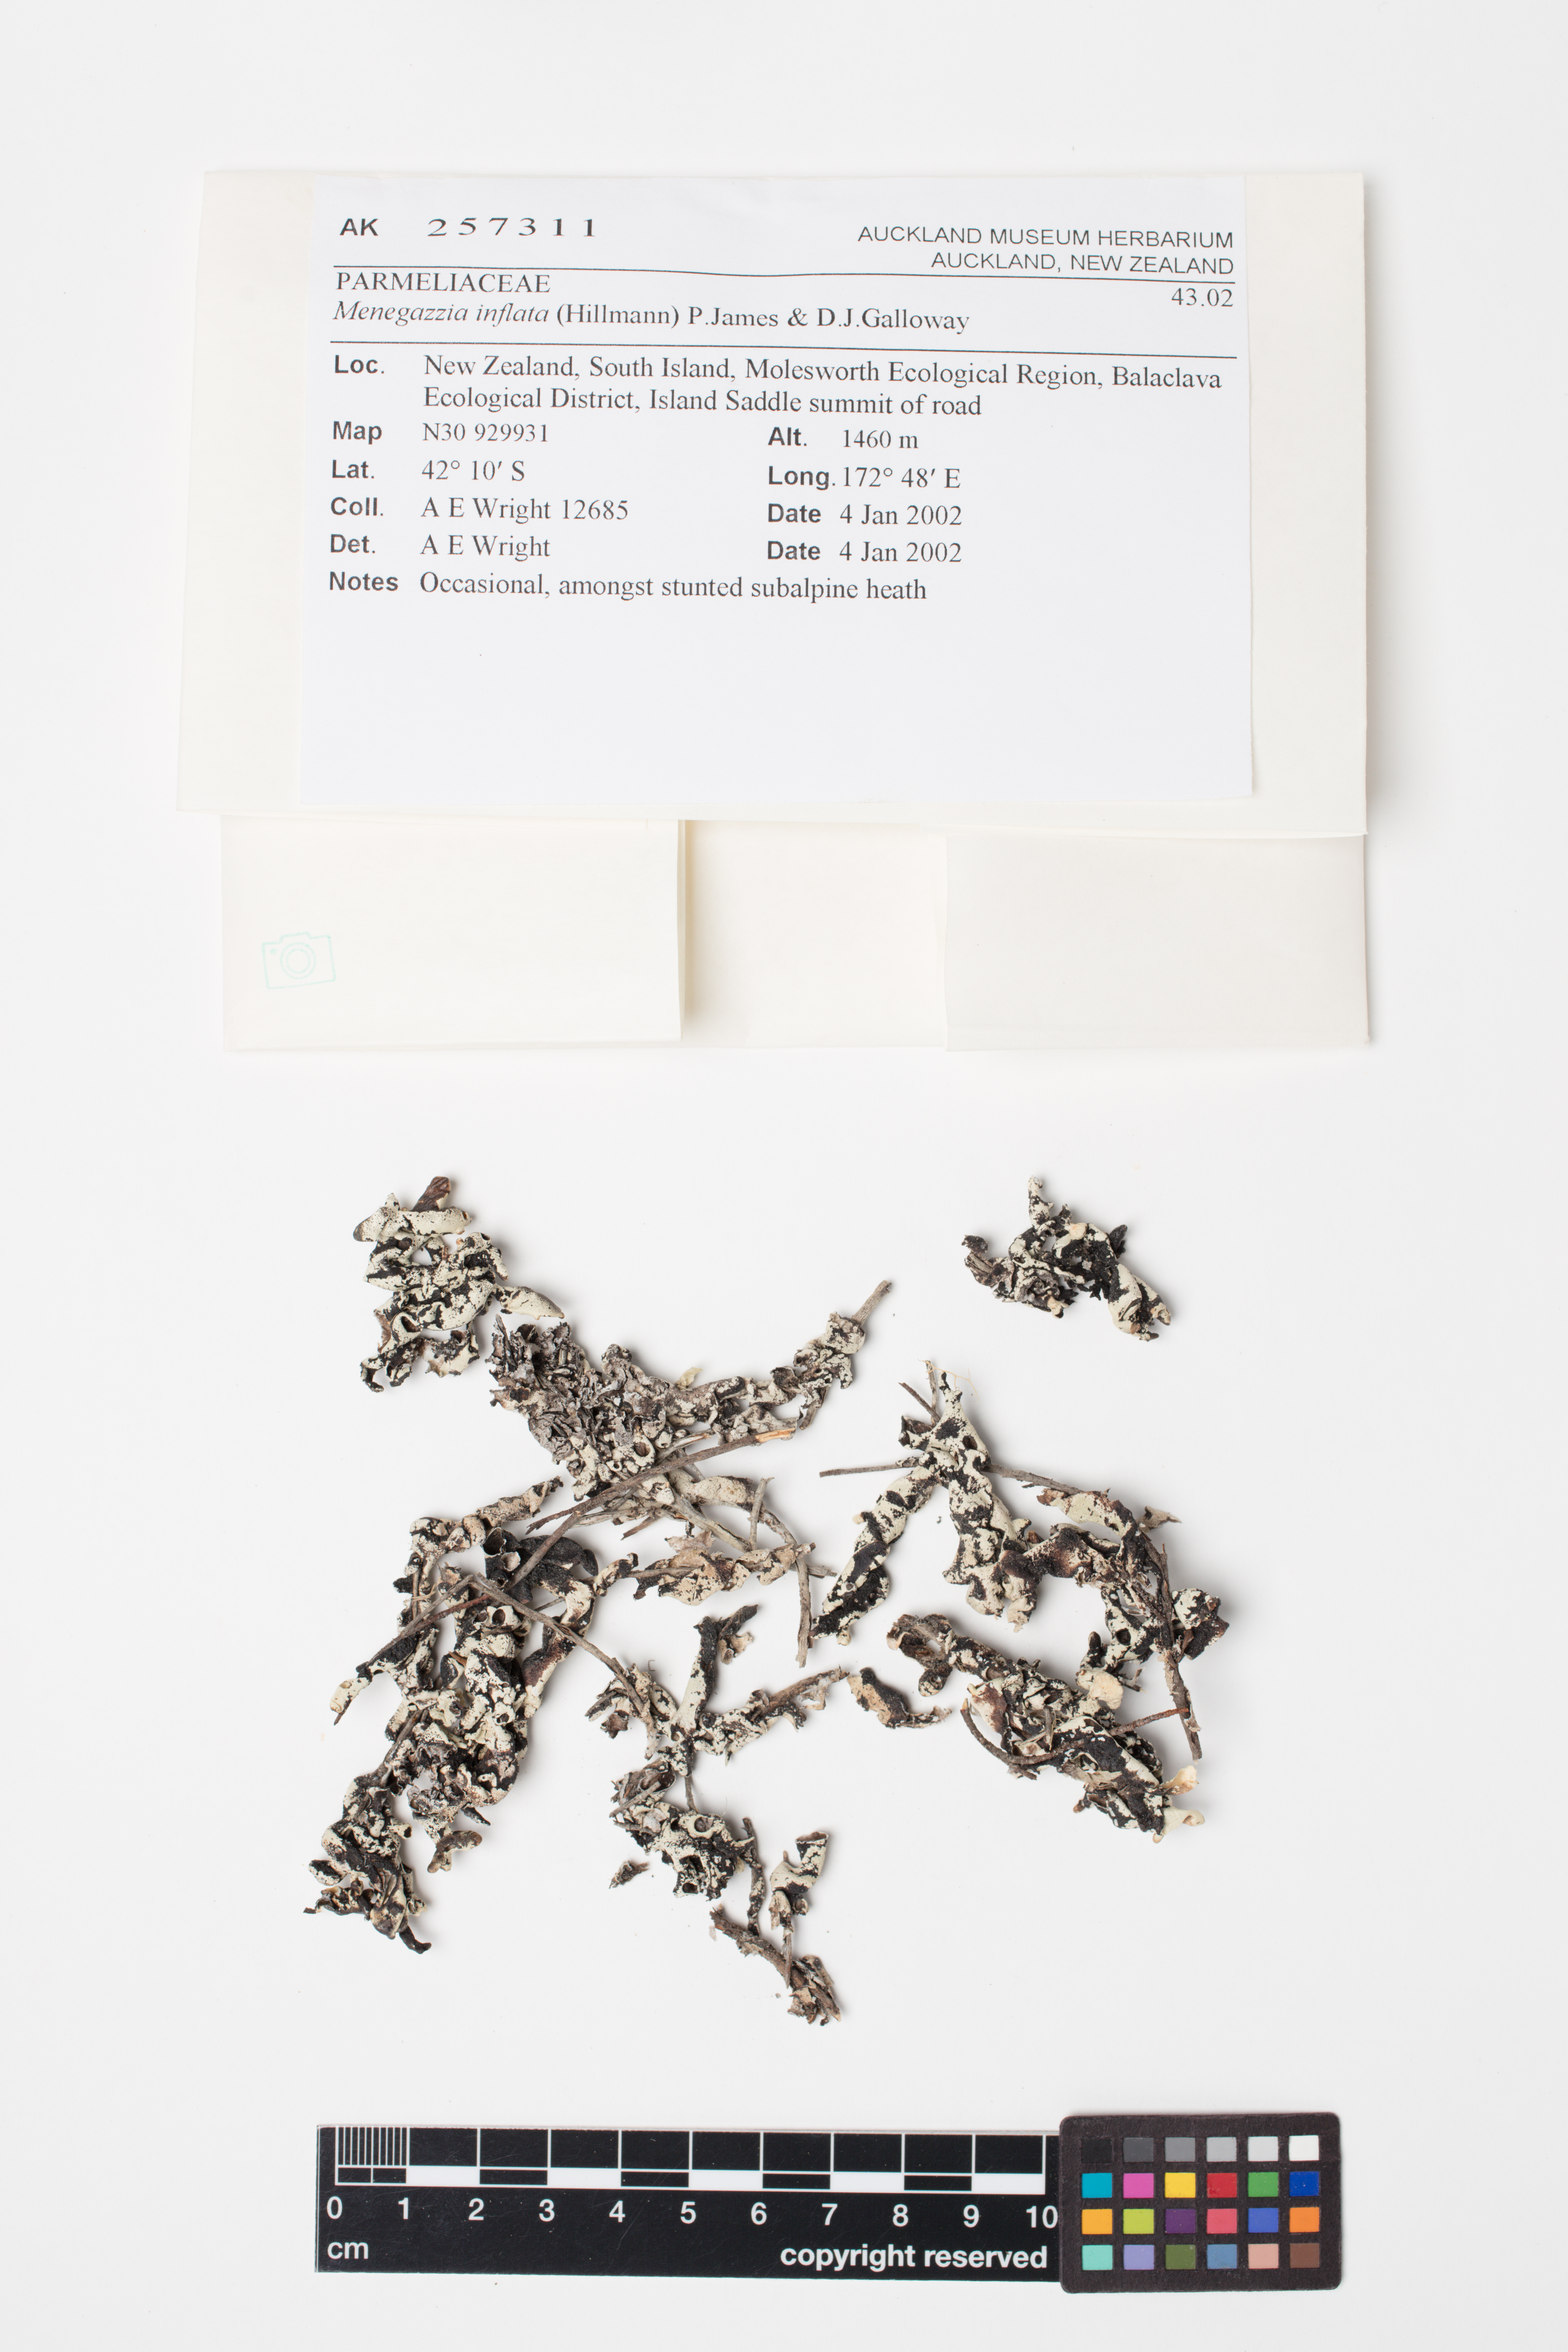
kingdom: Fungi
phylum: Ascomycota
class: Lecanoromycetes
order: Lecanorales
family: Parmeliaceae
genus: Menegazzia
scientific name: Menegazzia
